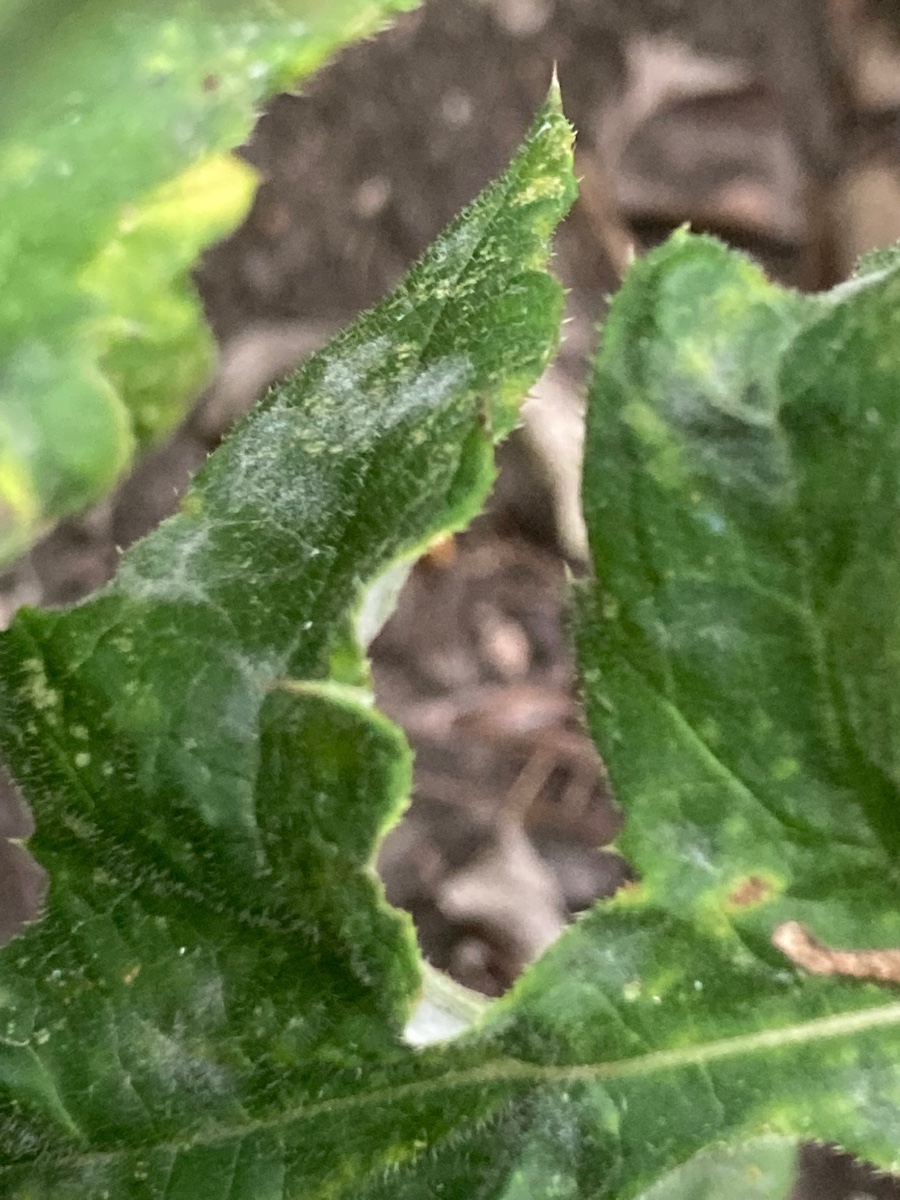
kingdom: Fungi
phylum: Ascomycota
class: Leotiomycetes
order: Helotiales
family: Erysiphaceae
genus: Golovinomyces
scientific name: Golovinomyces echinopis
